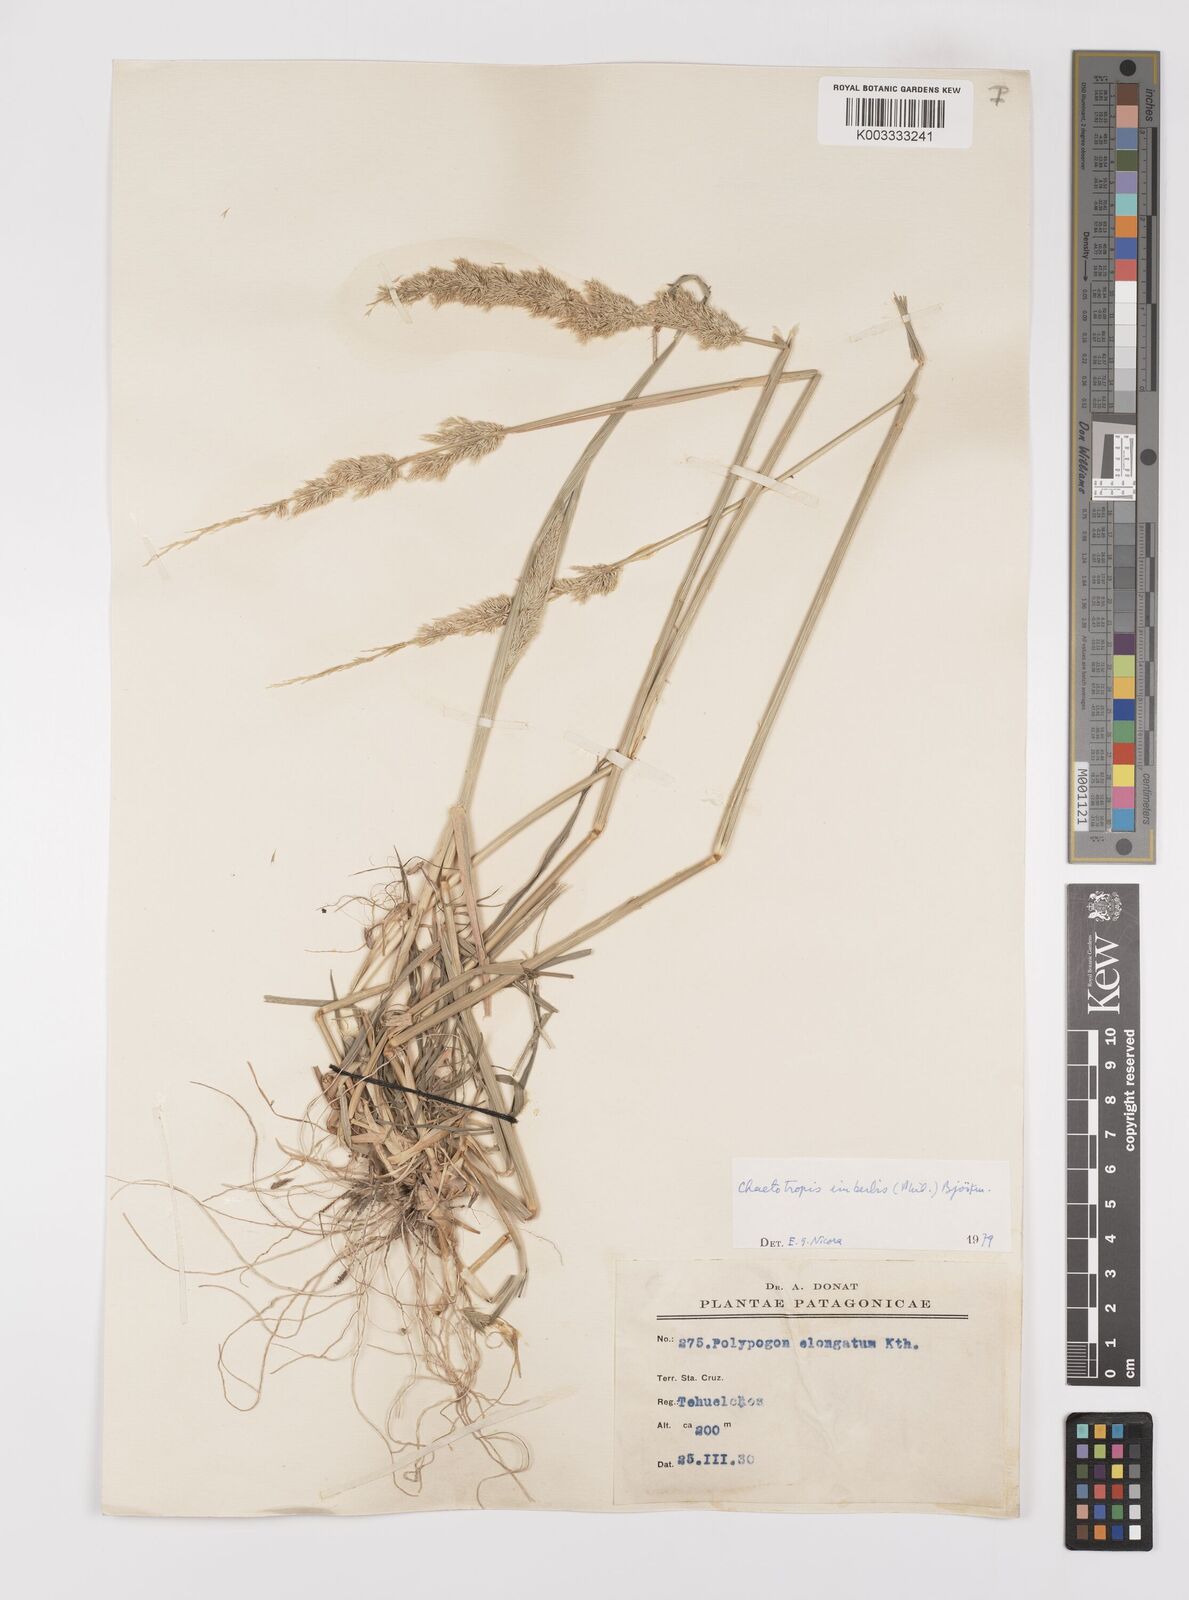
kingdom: Plantae
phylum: Tracheophyta
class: Liliopsida
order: Poales
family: Poaceae
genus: Polypogon
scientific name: Polypogon imberbis
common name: Beardless rabbitsfoot grass
